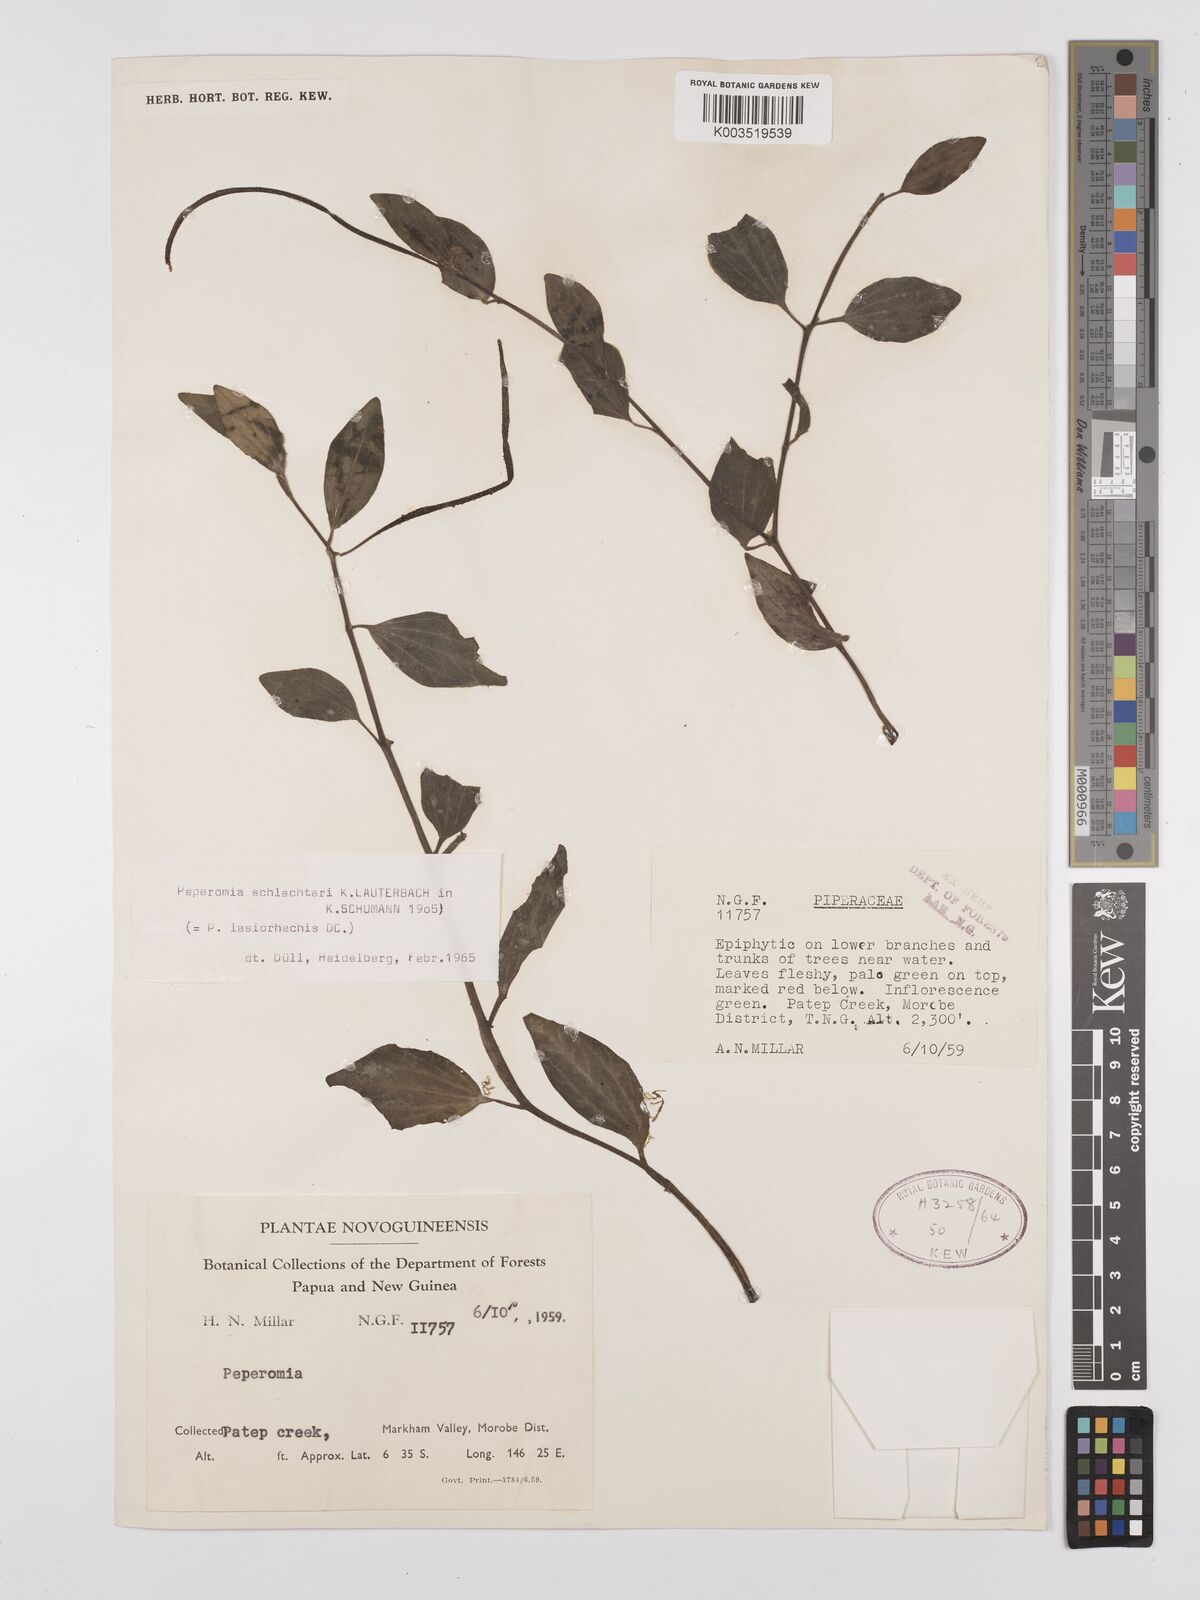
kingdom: Plantae
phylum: Tracheophyta
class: Magnoliopsida
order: Piperales
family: Piperaceae
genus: Peperomia
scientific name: Peperomia schlechteri
